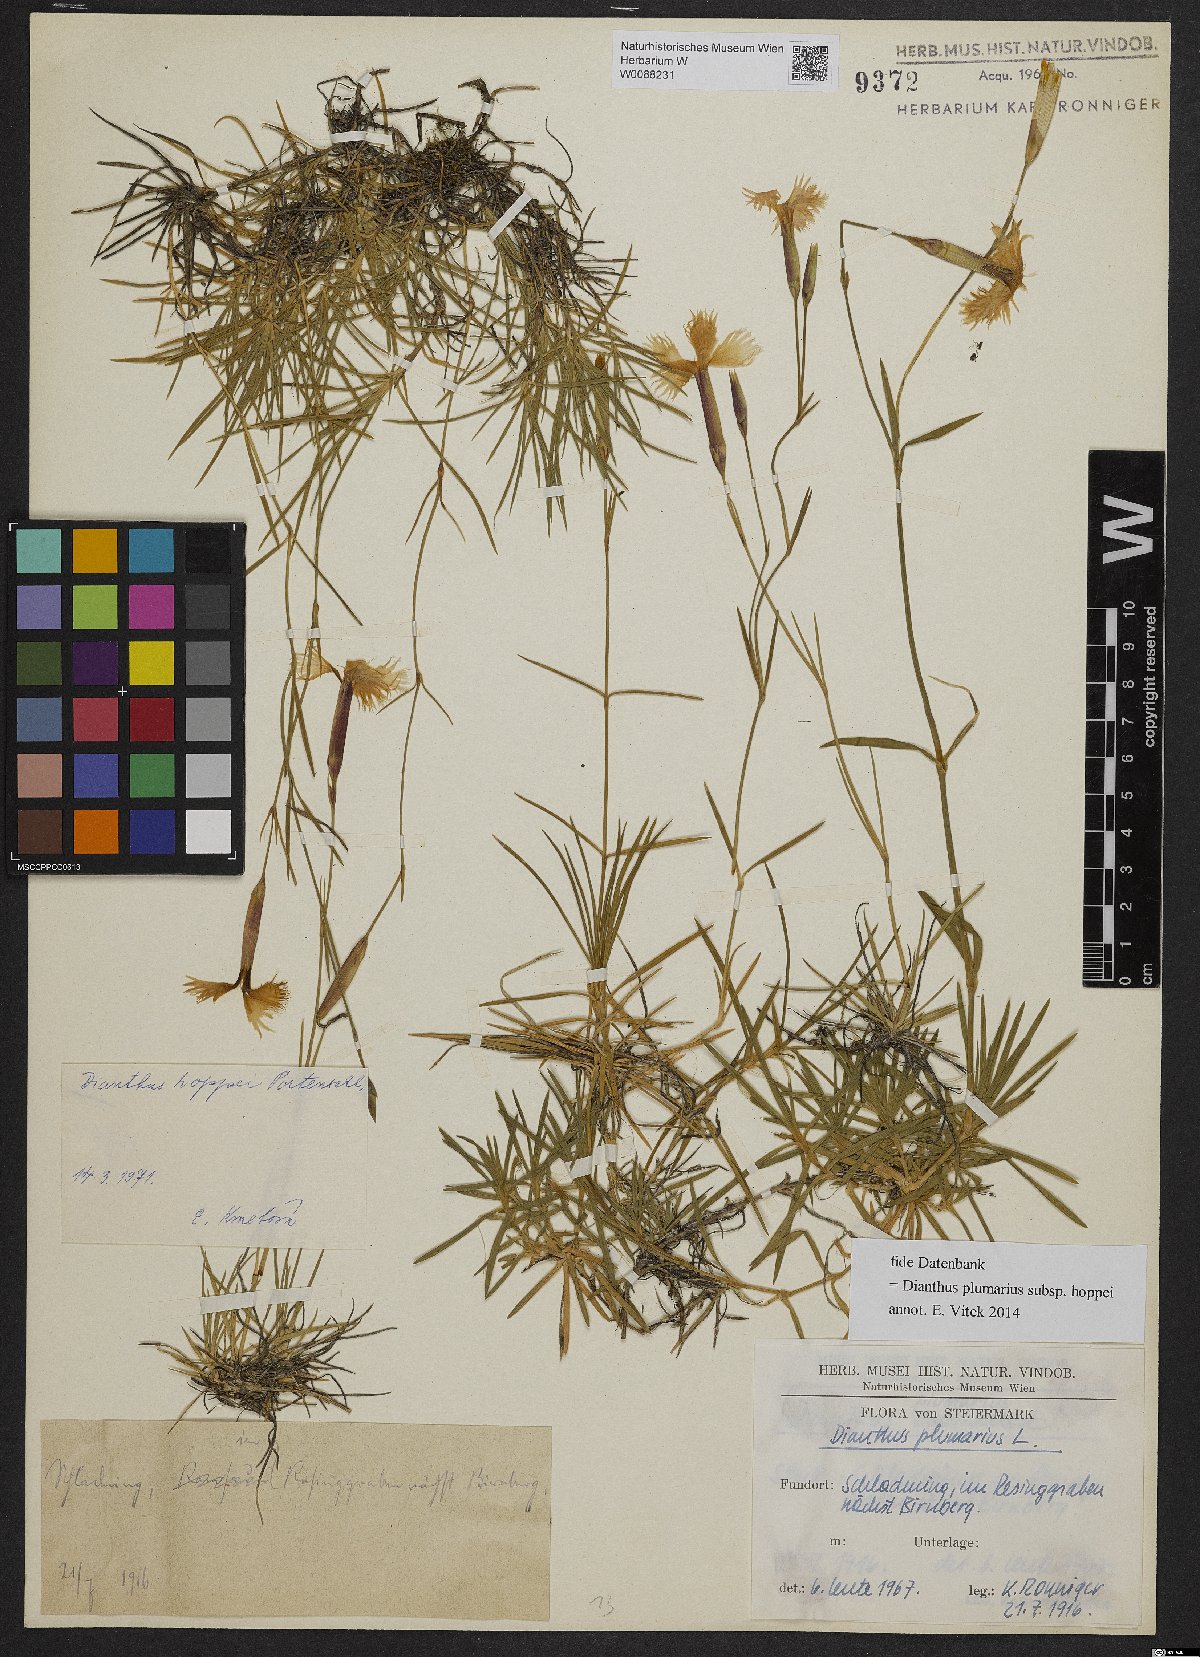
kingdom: Plantae
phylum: Tracheophyta
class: Magnoliopsida
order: Caryophyllales
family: Caryophyllaceae
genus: Dianthus
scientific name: Dianthus plumarius
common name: Pink
